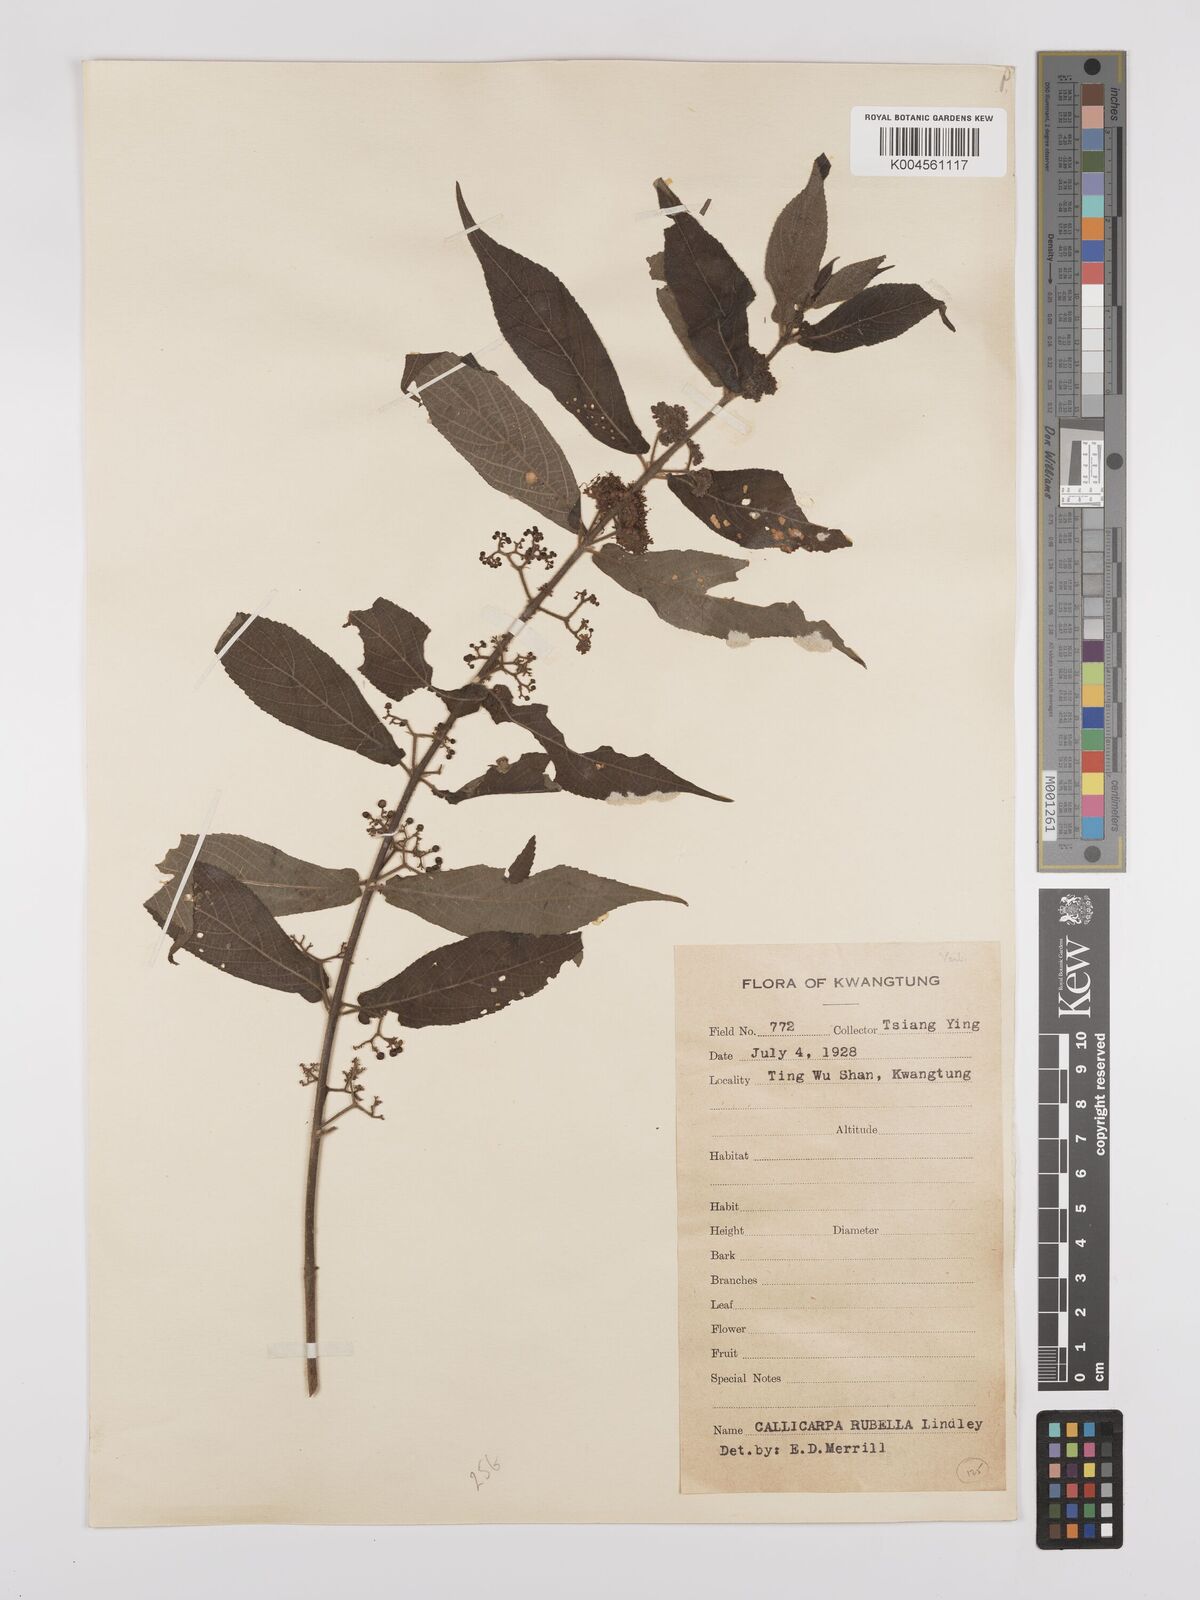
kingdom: Plantae
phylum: Tracheophyta
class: Magnoliopsida
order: Lamiales
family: Lamiaceae
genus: Callicarpa
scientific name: Callicarpa rubella
